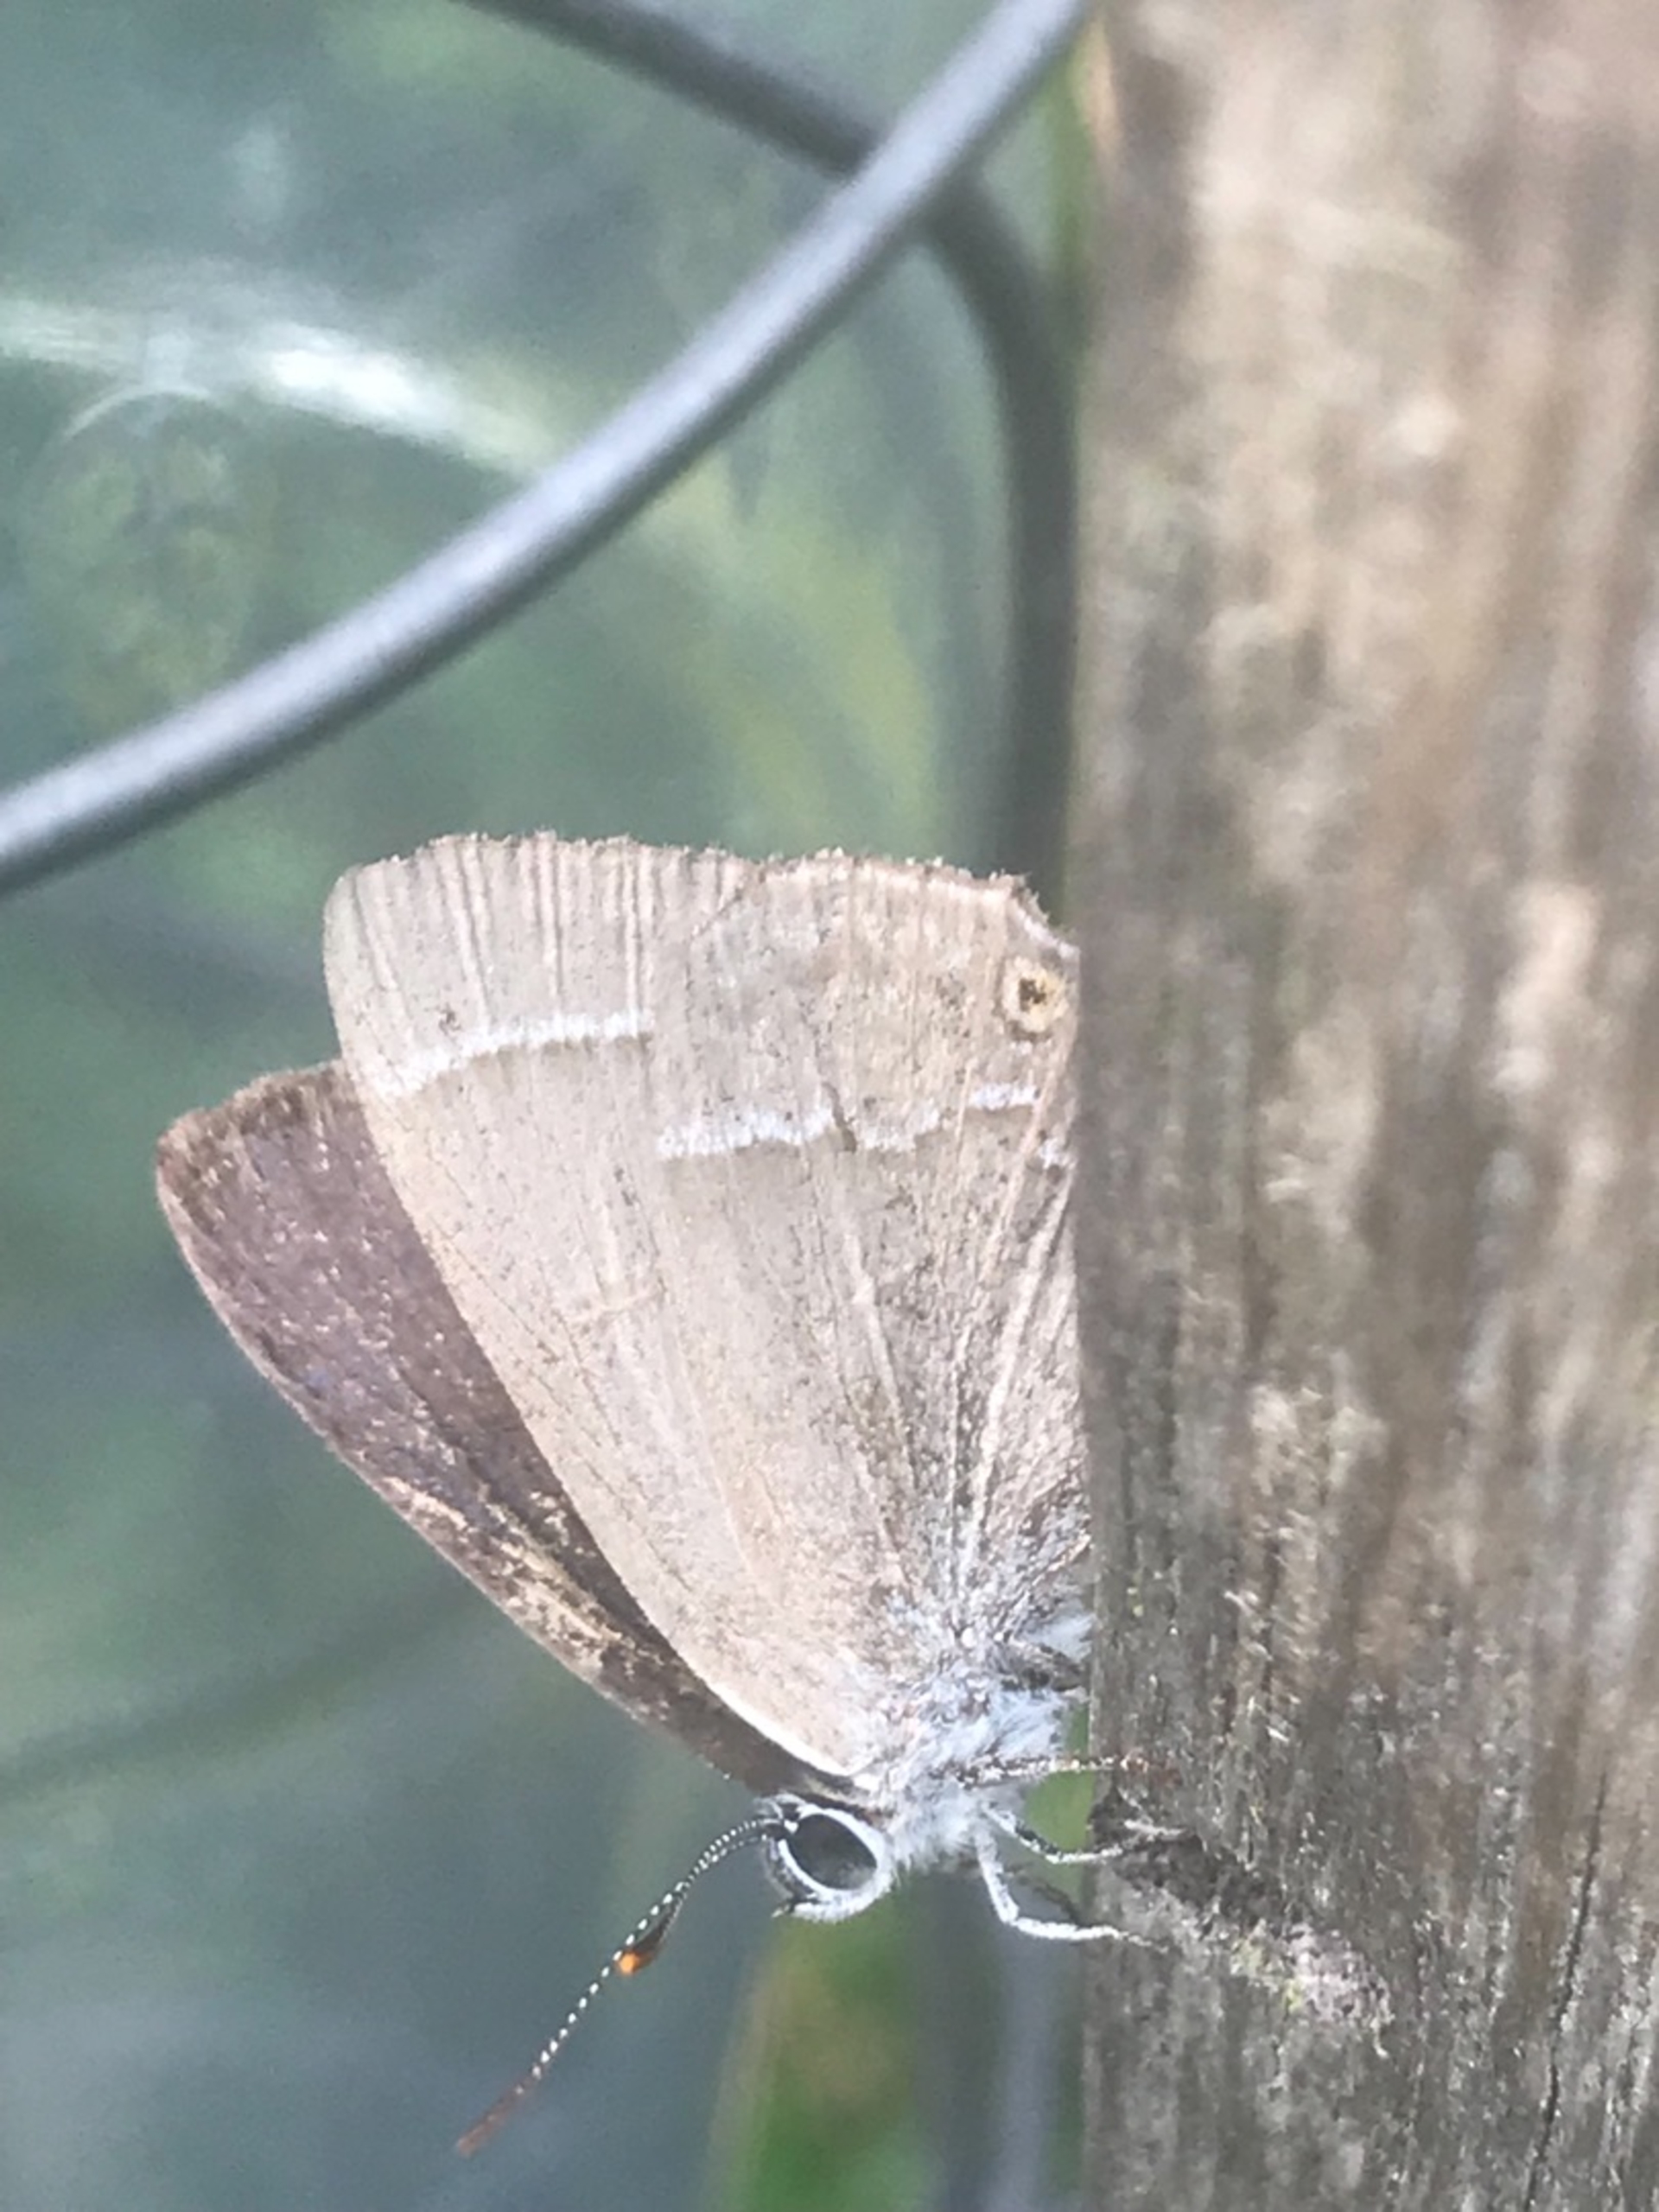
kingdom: Animalia
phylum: Arthropoda
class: Insecta
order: Lepidoptera
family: Lycaenidae
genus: Quercusia
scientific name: Quercusia quercus
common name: Blåhale
